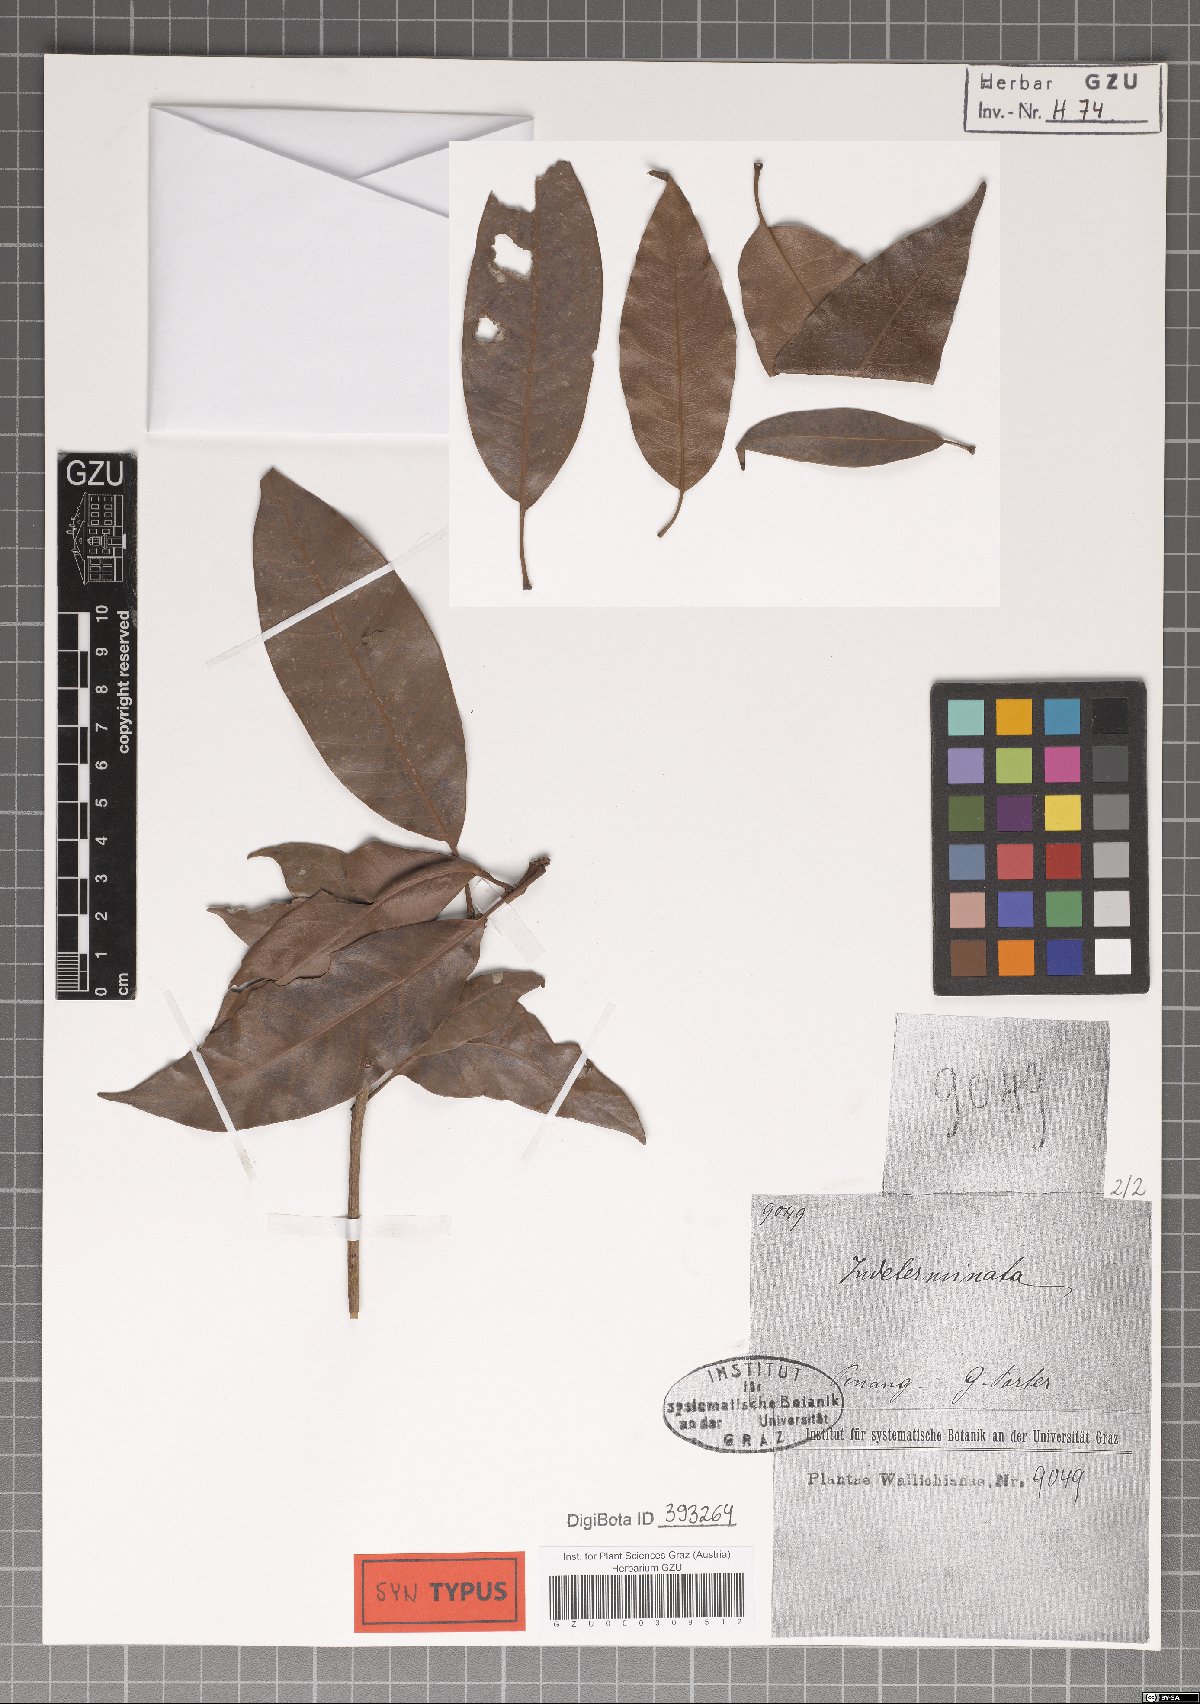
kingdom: Plantae
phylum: Tracheophyta
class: Magnoliopsida
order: Sapindales
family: Anacardiaceae
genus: Gluta
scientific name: Gluta elegans
